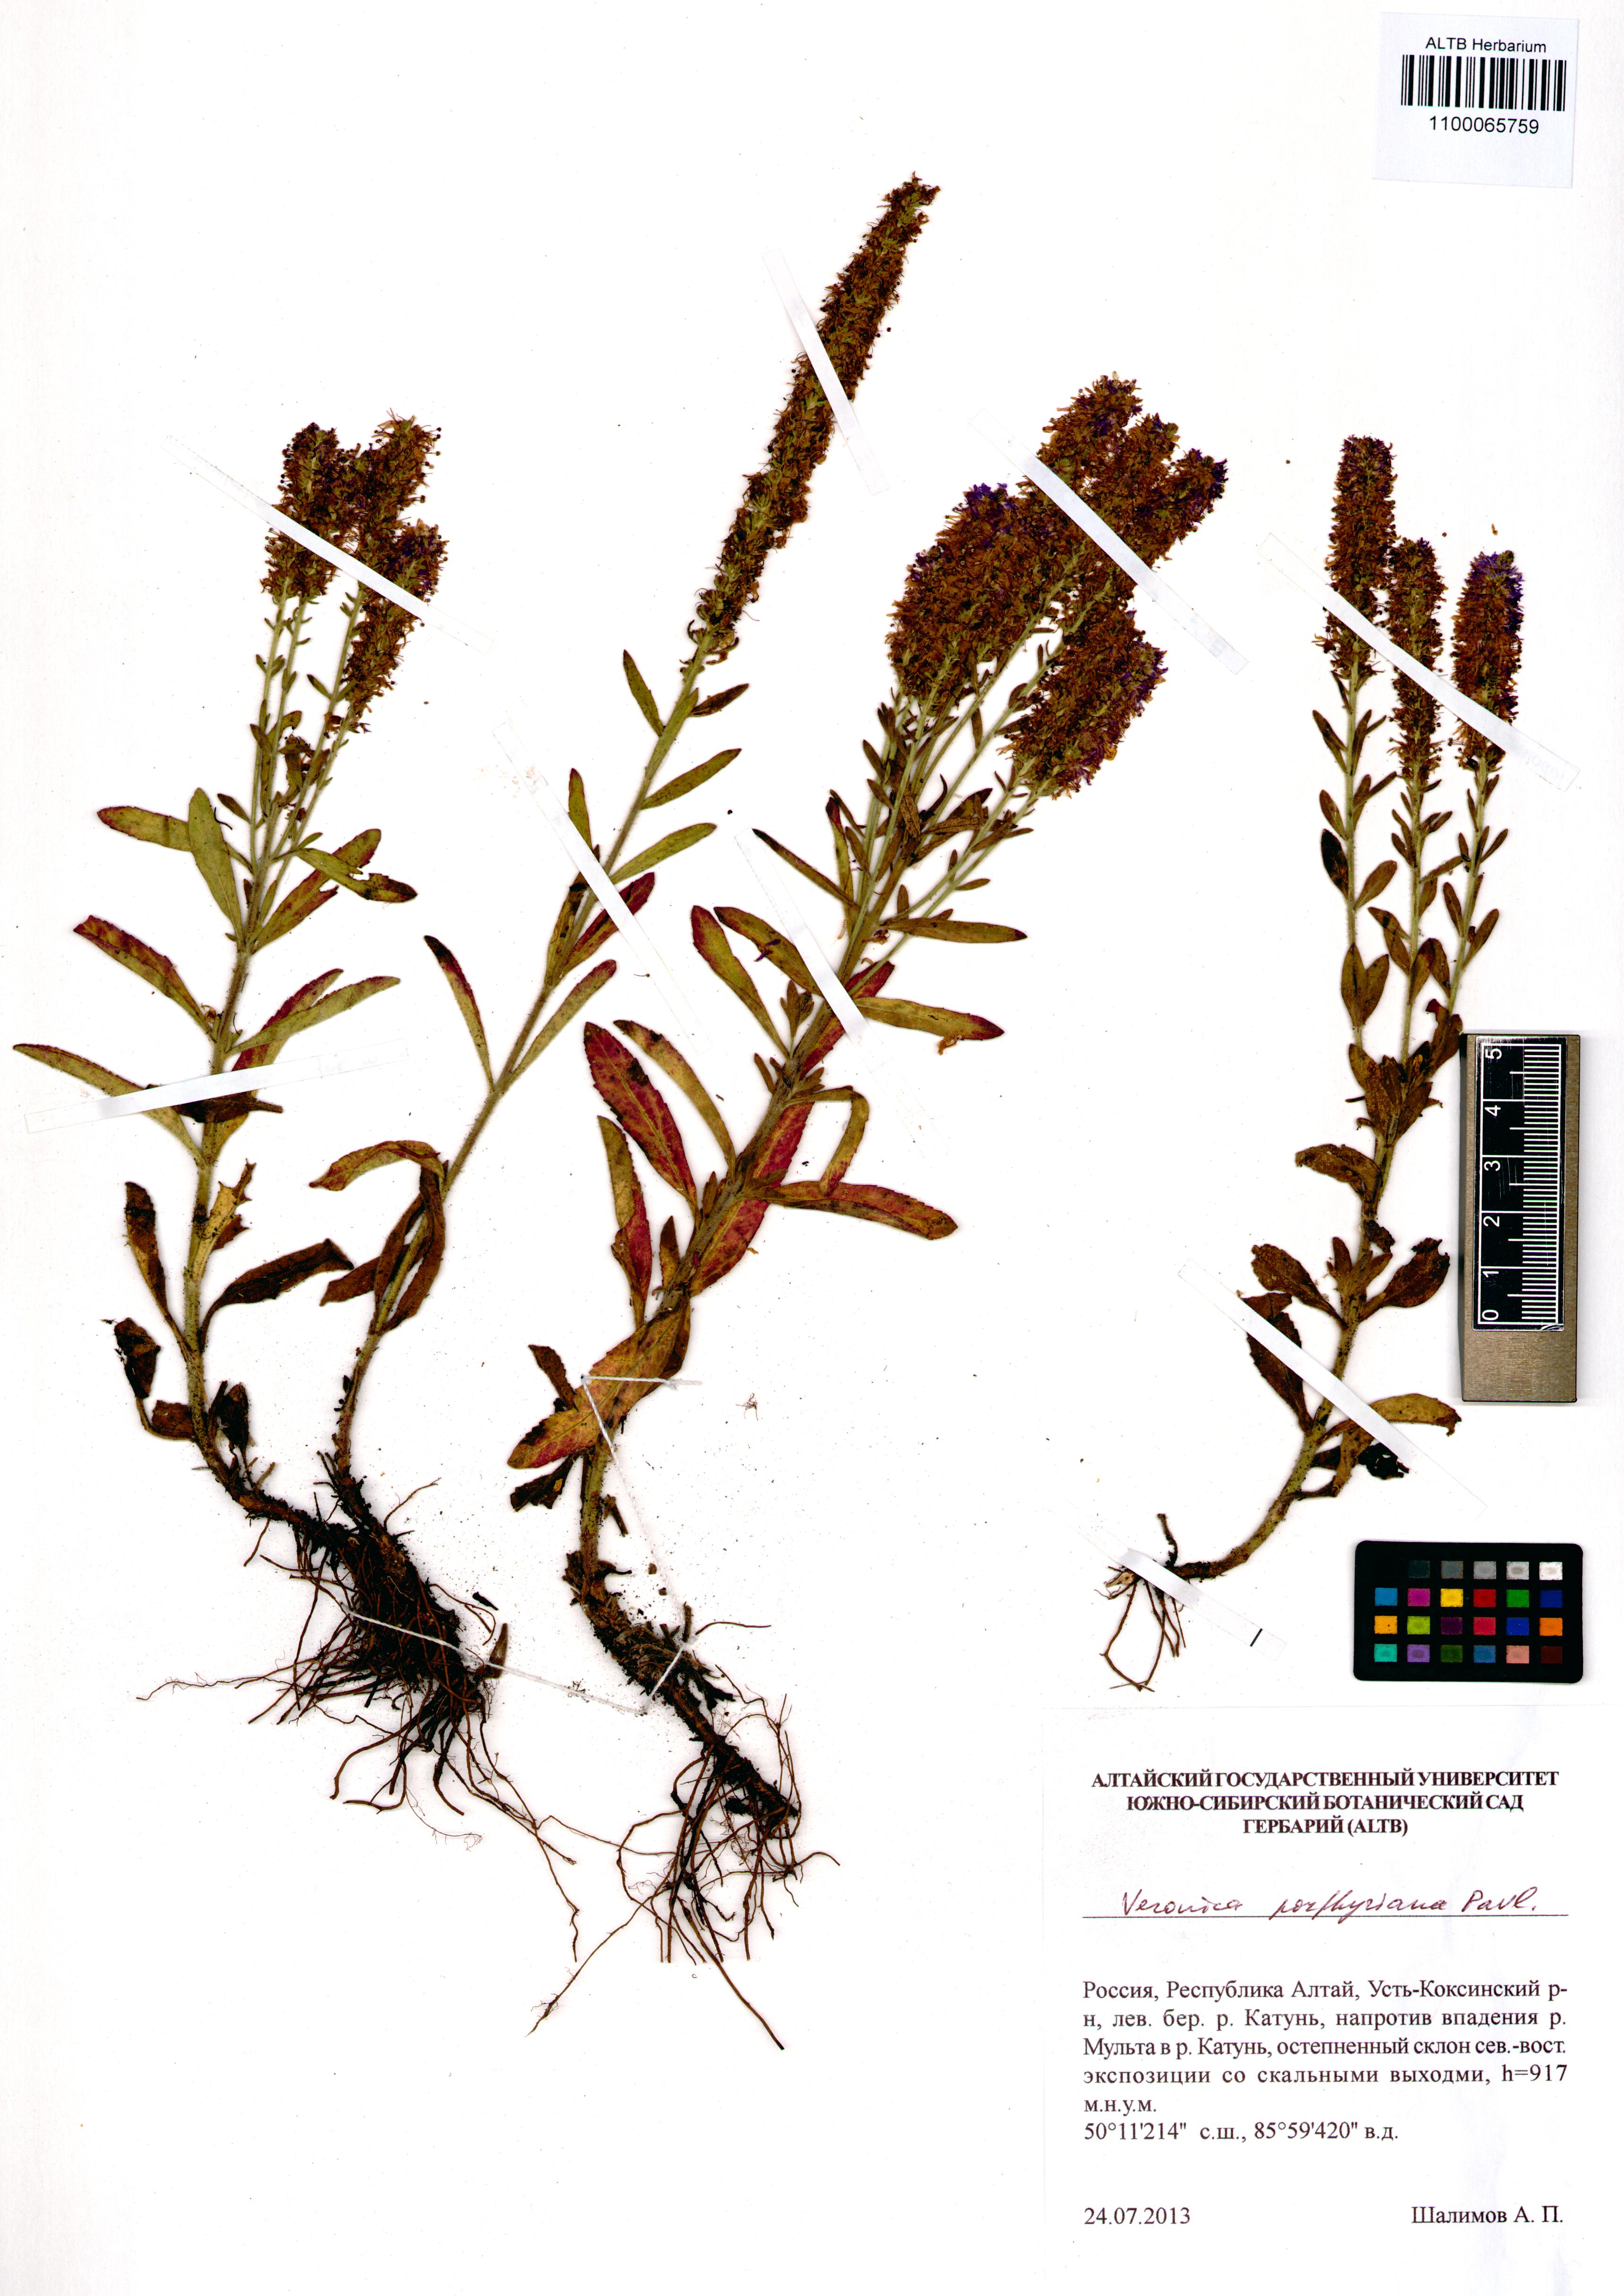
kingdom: Plantae
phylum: Tracheophyta
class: Magnoliopsida
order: Lamiales
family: Plantaginaceae
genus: Veronica
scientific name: Veronica porphyriana
